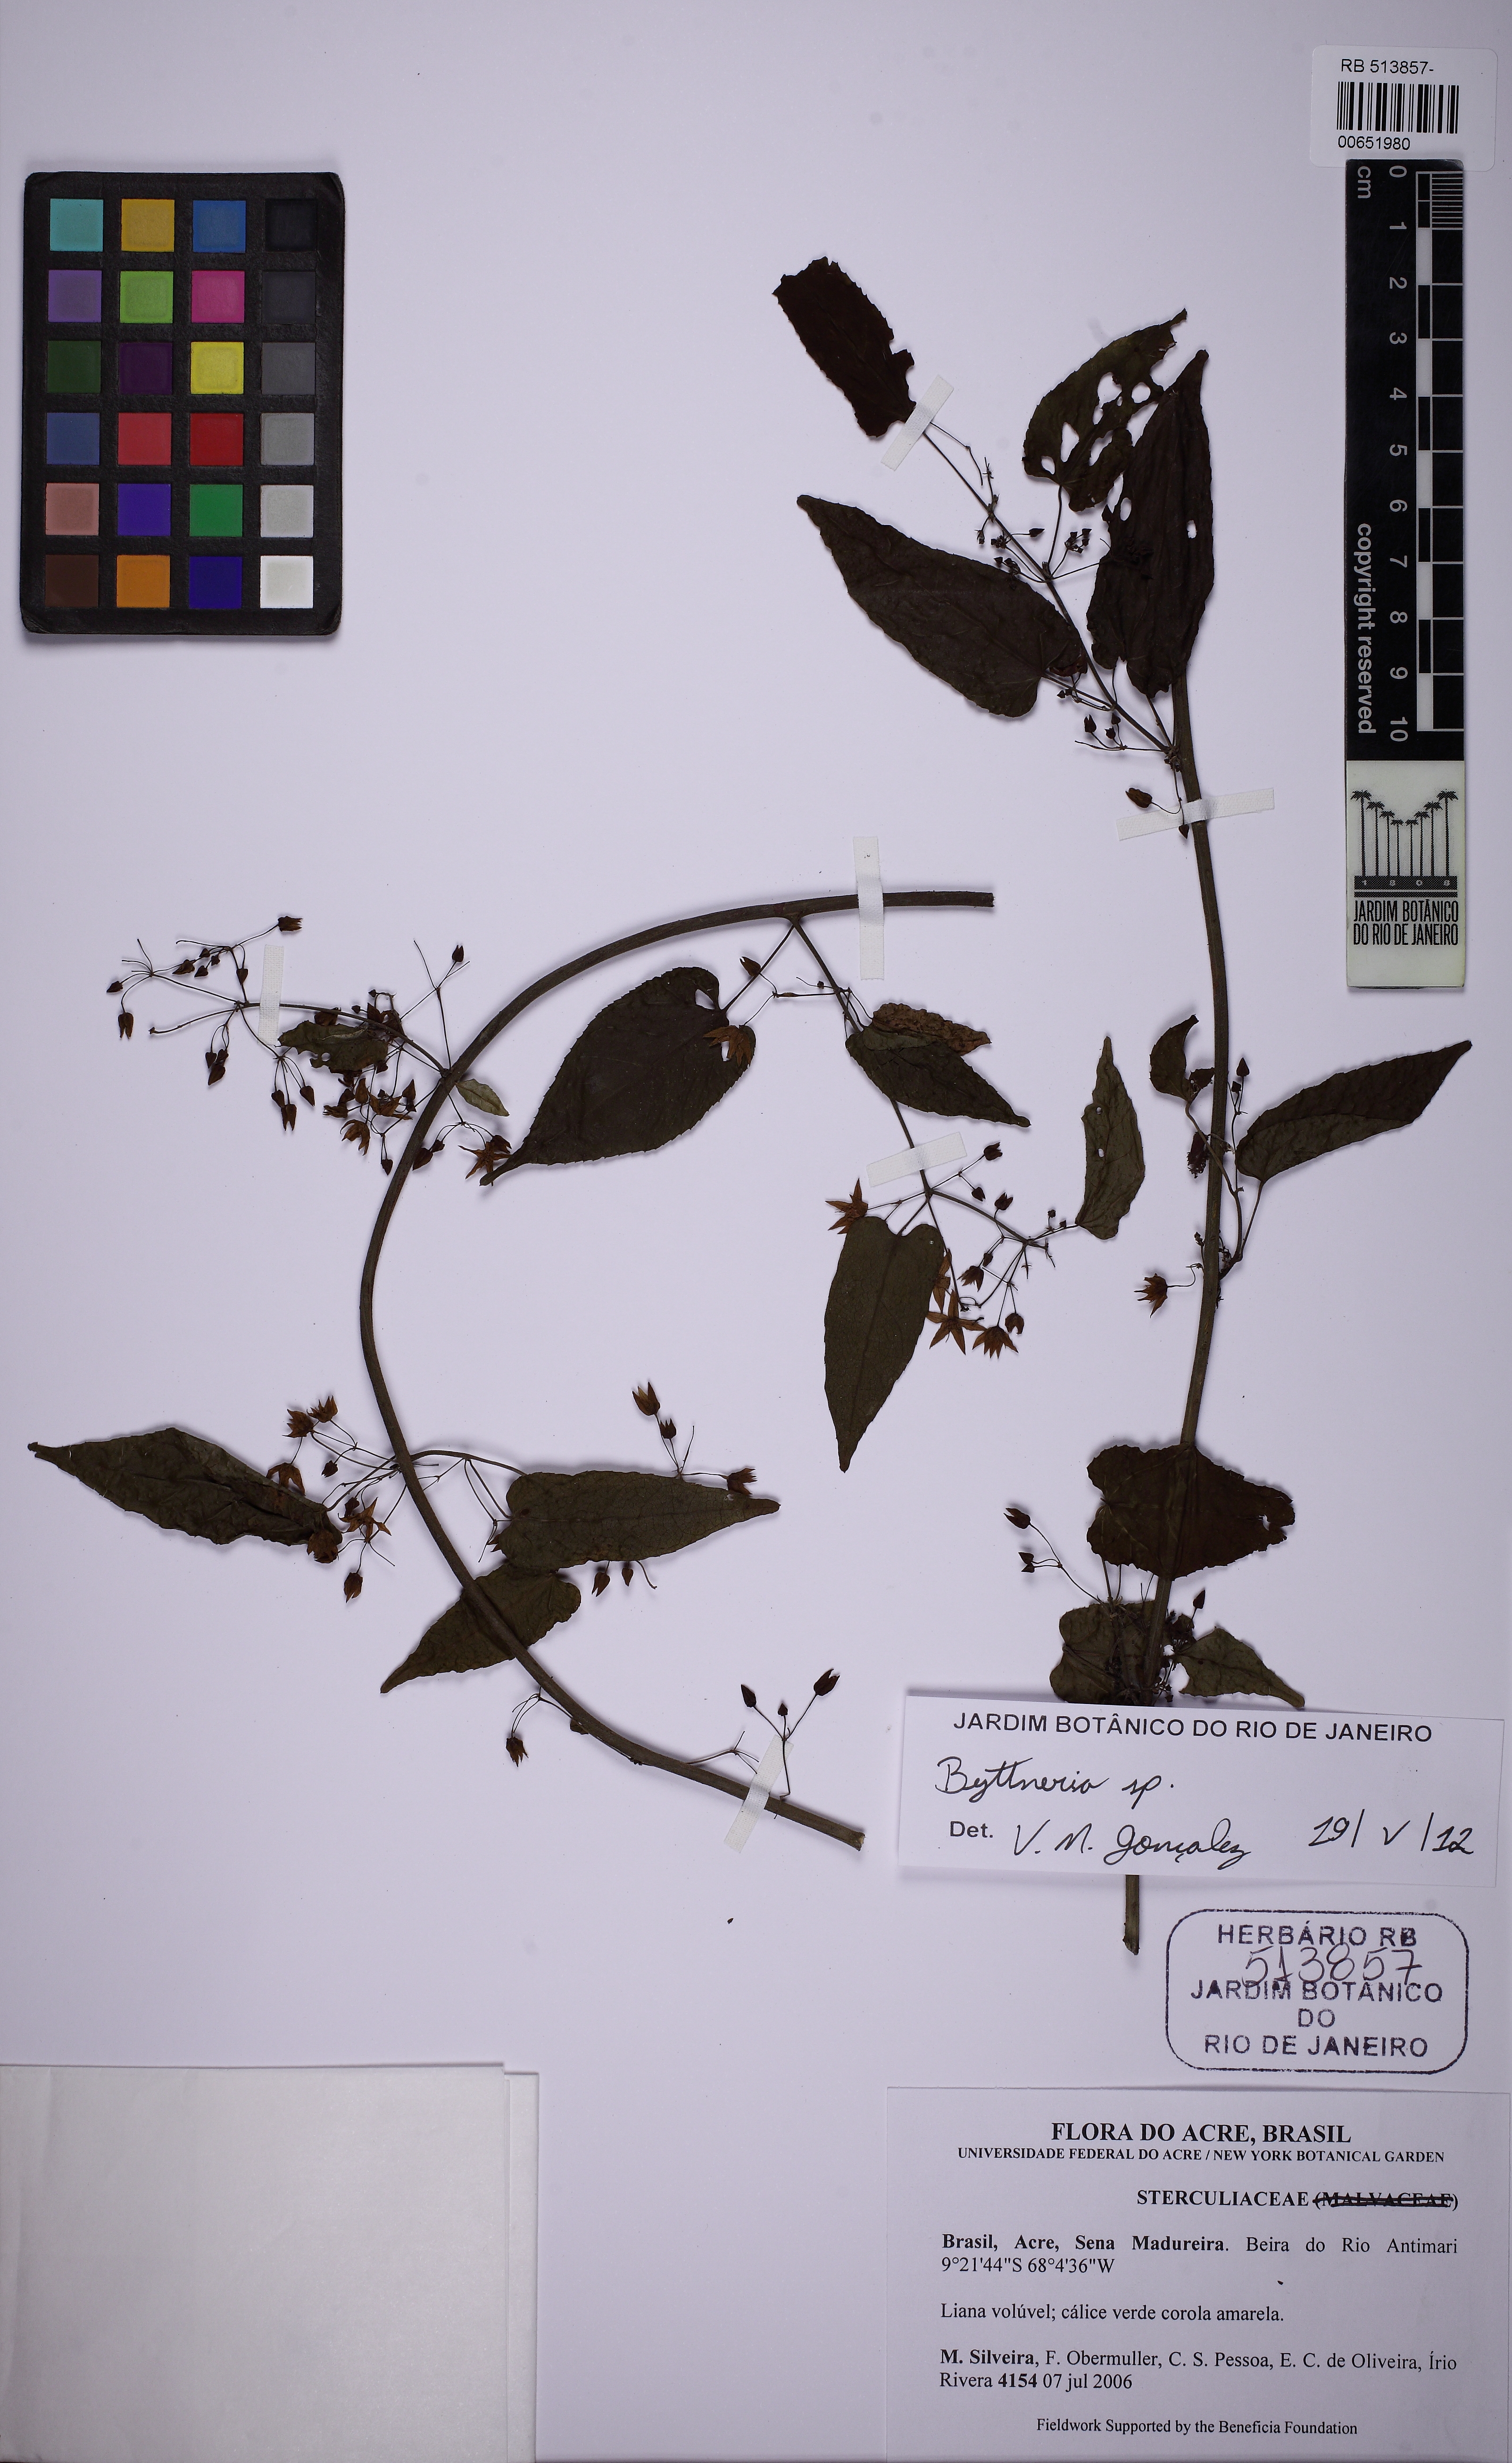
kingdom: Plantae
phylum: Tracheophyta
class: Magnoliopsida
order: Malvales
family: Malvaceae
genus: Byttneria
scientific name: Byttneria
